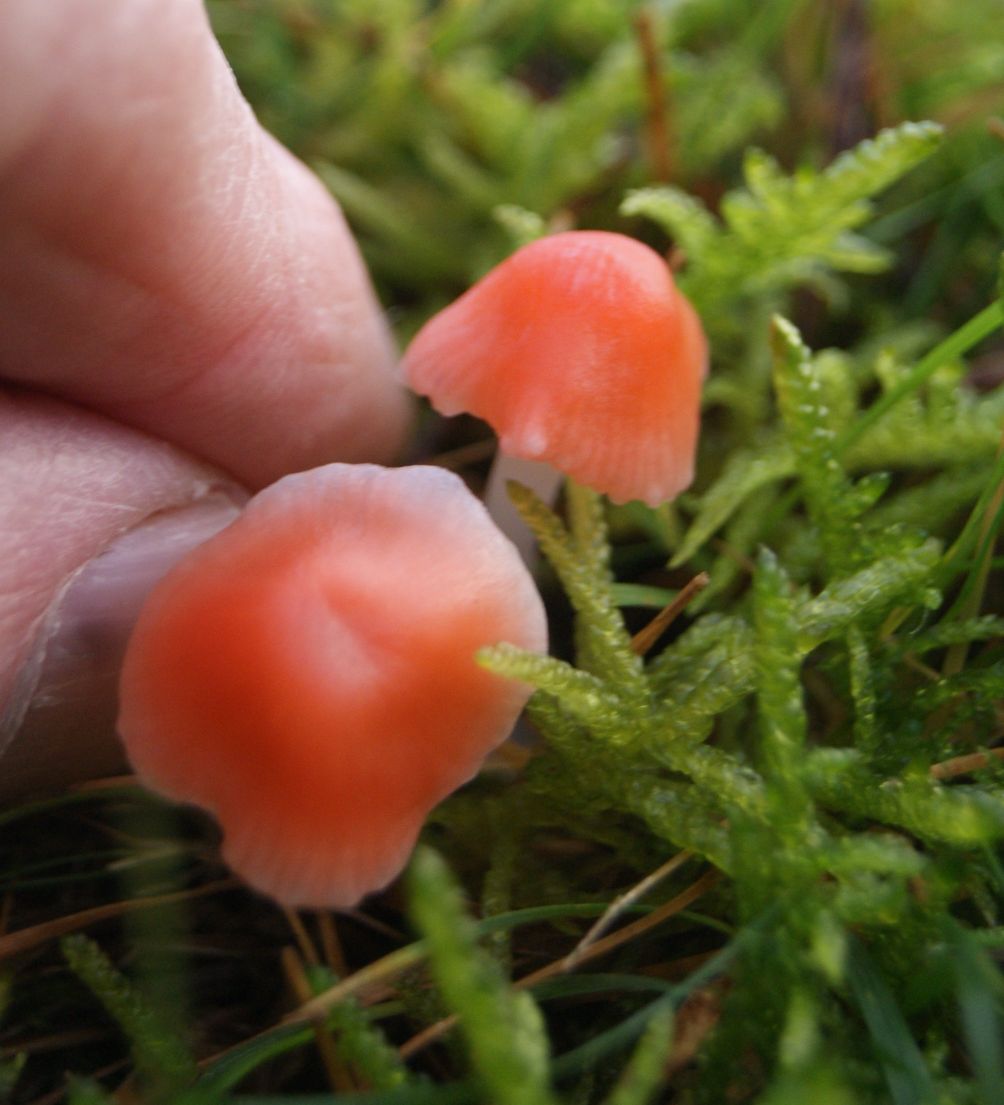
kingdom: Fungi
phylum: Basidiomycota
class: Agaricomycetes
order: Agaricales
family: Mycenaceae
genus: Atheniella
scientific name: Atheniella adonis
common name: rønnerød huesvamp
